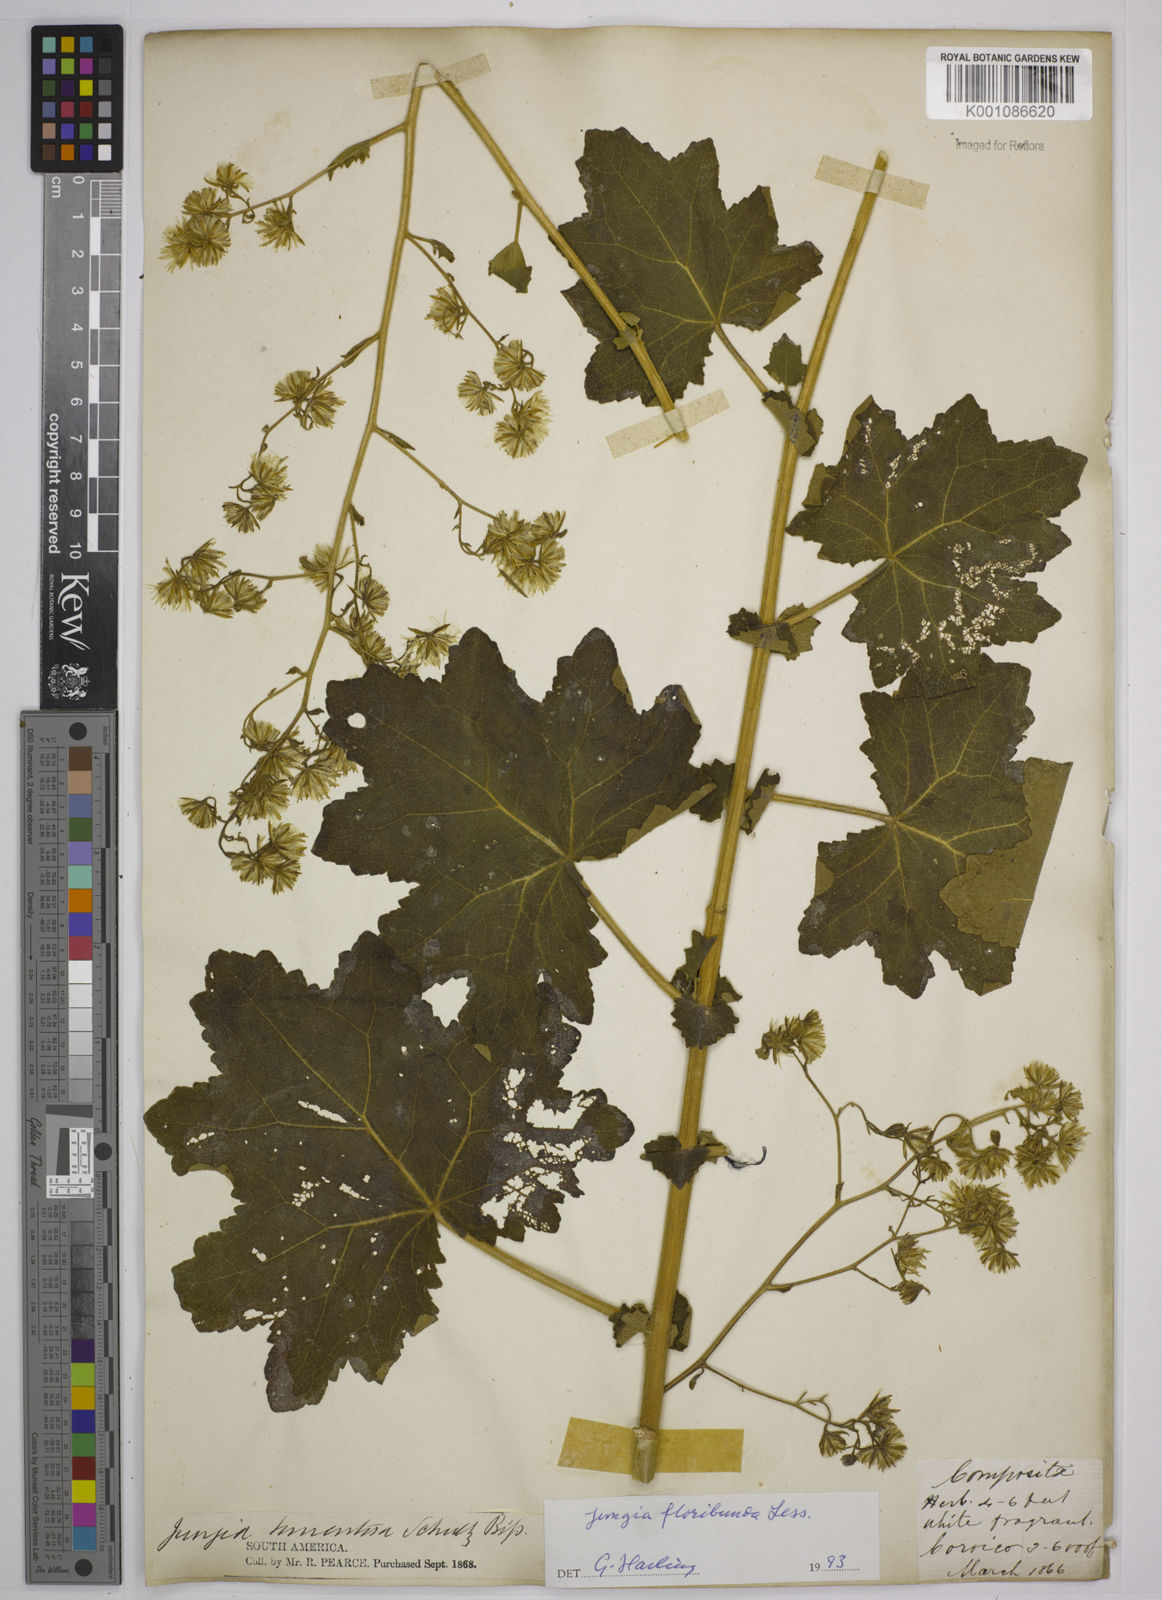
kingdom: Plantae
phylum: Tracheophyta
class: Magnoliopsida
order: Asterales
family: Asteraceae
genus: Jungia
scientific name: Jungia floribunda
